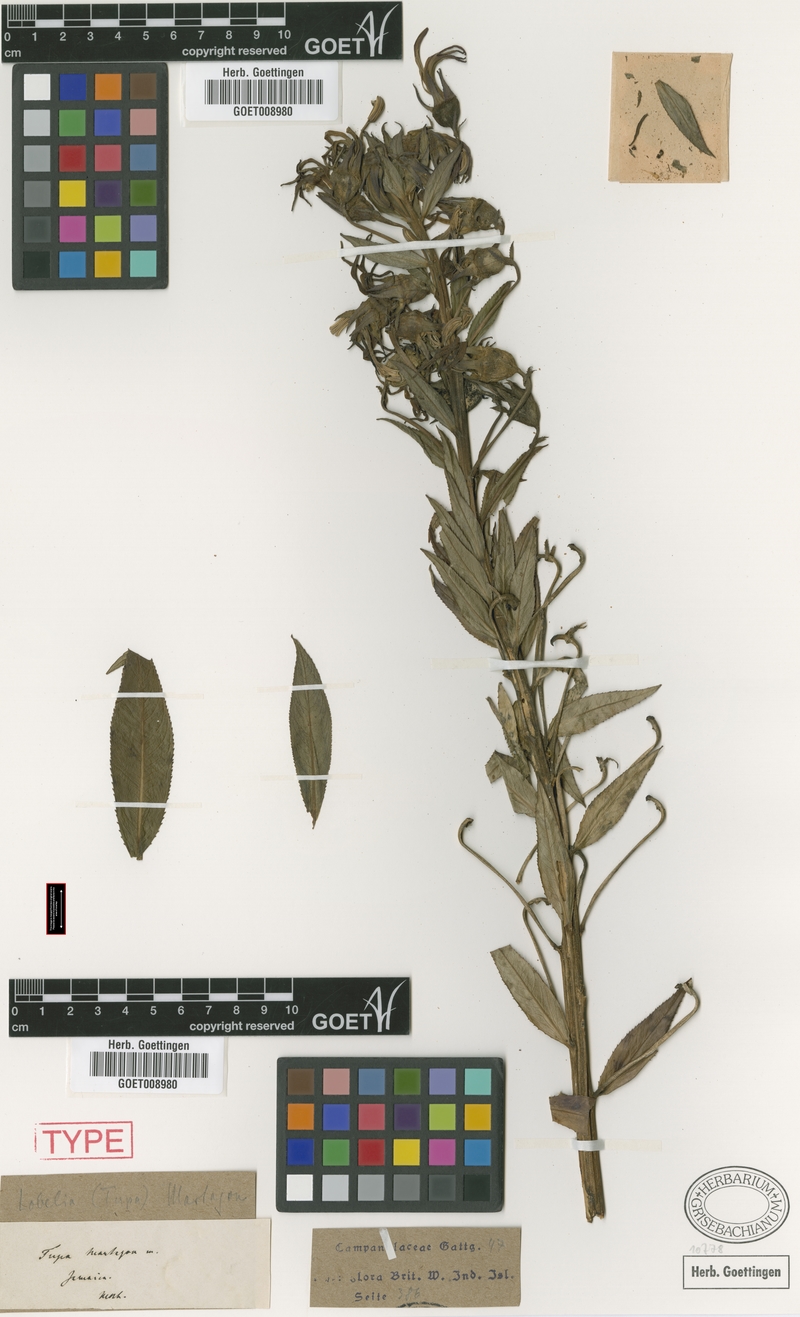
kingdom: Plantae
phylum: Tracheophyta
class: Magnoliopsida
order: Asterales
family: Campanulaceae
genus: Lobelia
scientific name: Lobelia martagon
